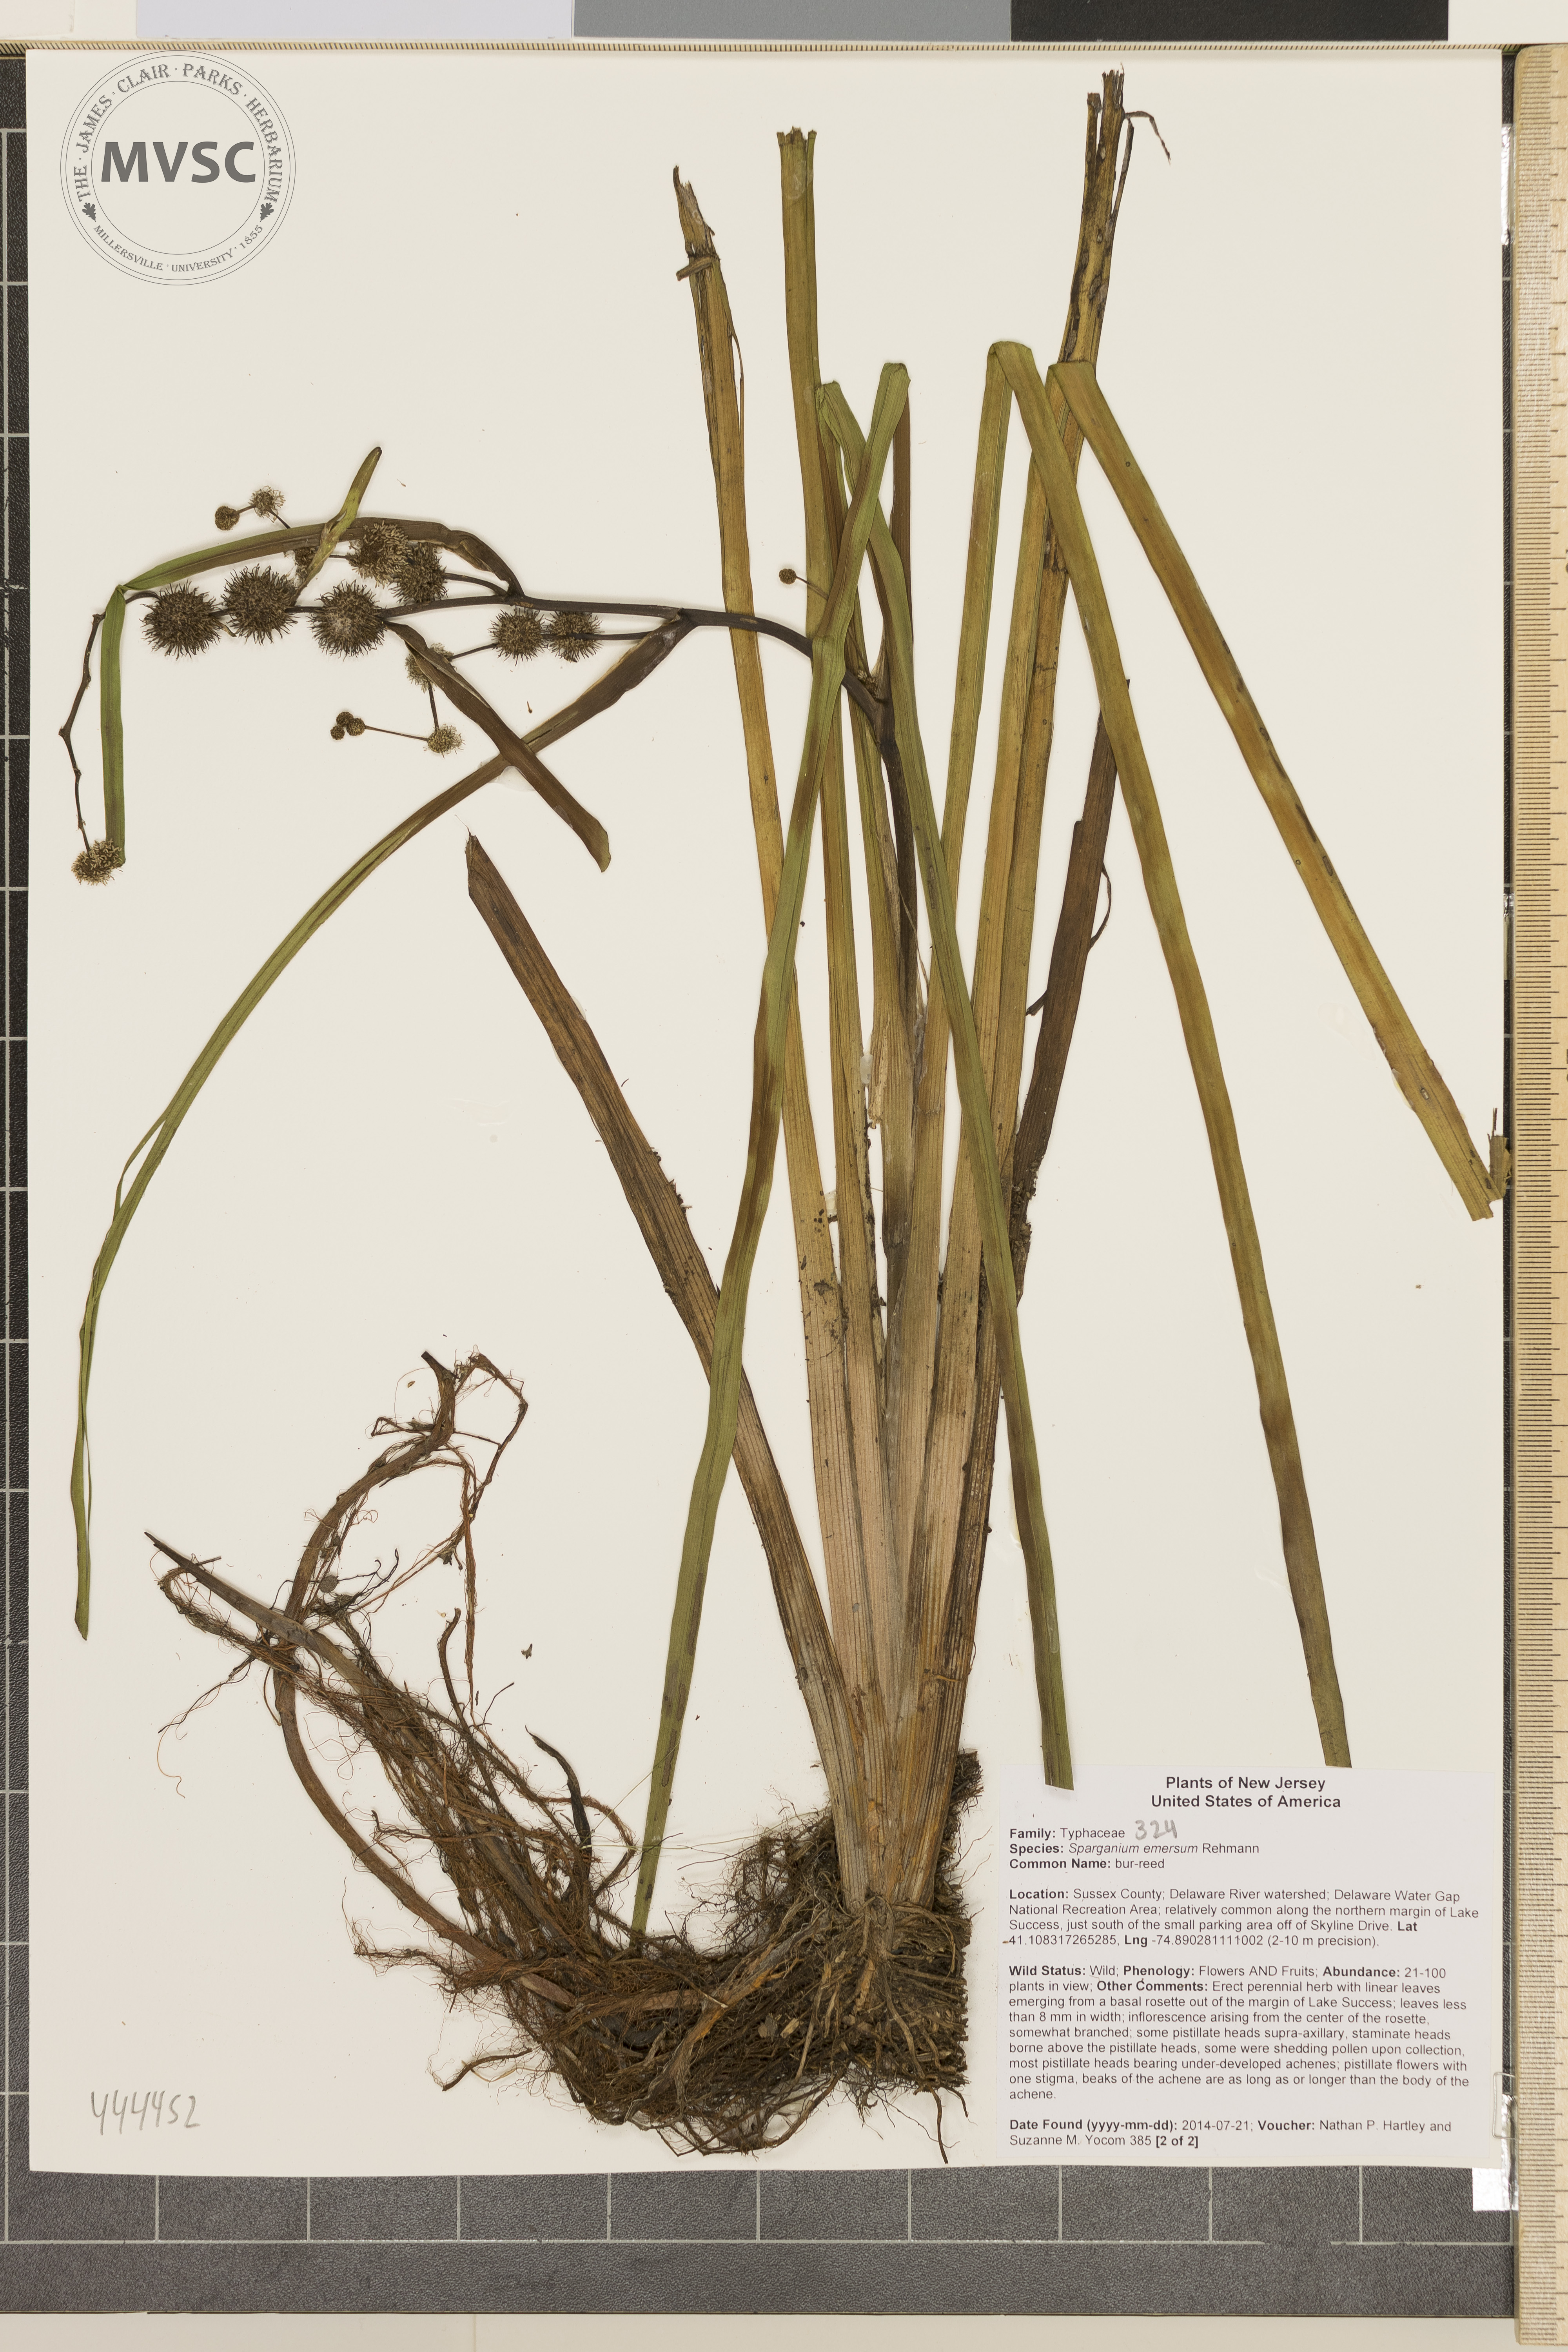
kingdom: Plantae
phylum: Tracheophyta
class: Liliopsida
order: Poales
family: Typhaceae
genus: Sparganium
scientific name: Sparganium americanum
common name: bur-reed
